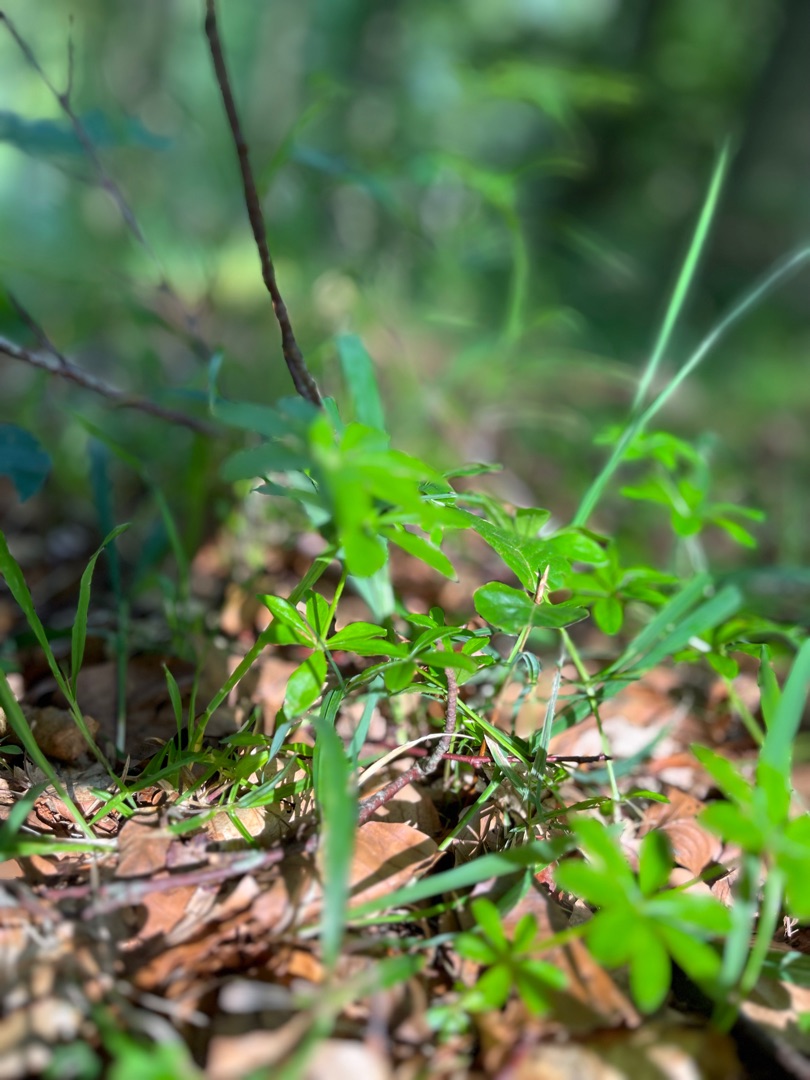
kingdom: Plantae
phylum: Tracheophyta
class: Magnoliopsida
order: Gentianales
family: Rubiaceae
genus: Galium
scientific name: Galium odoratum
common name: Skovmærke
